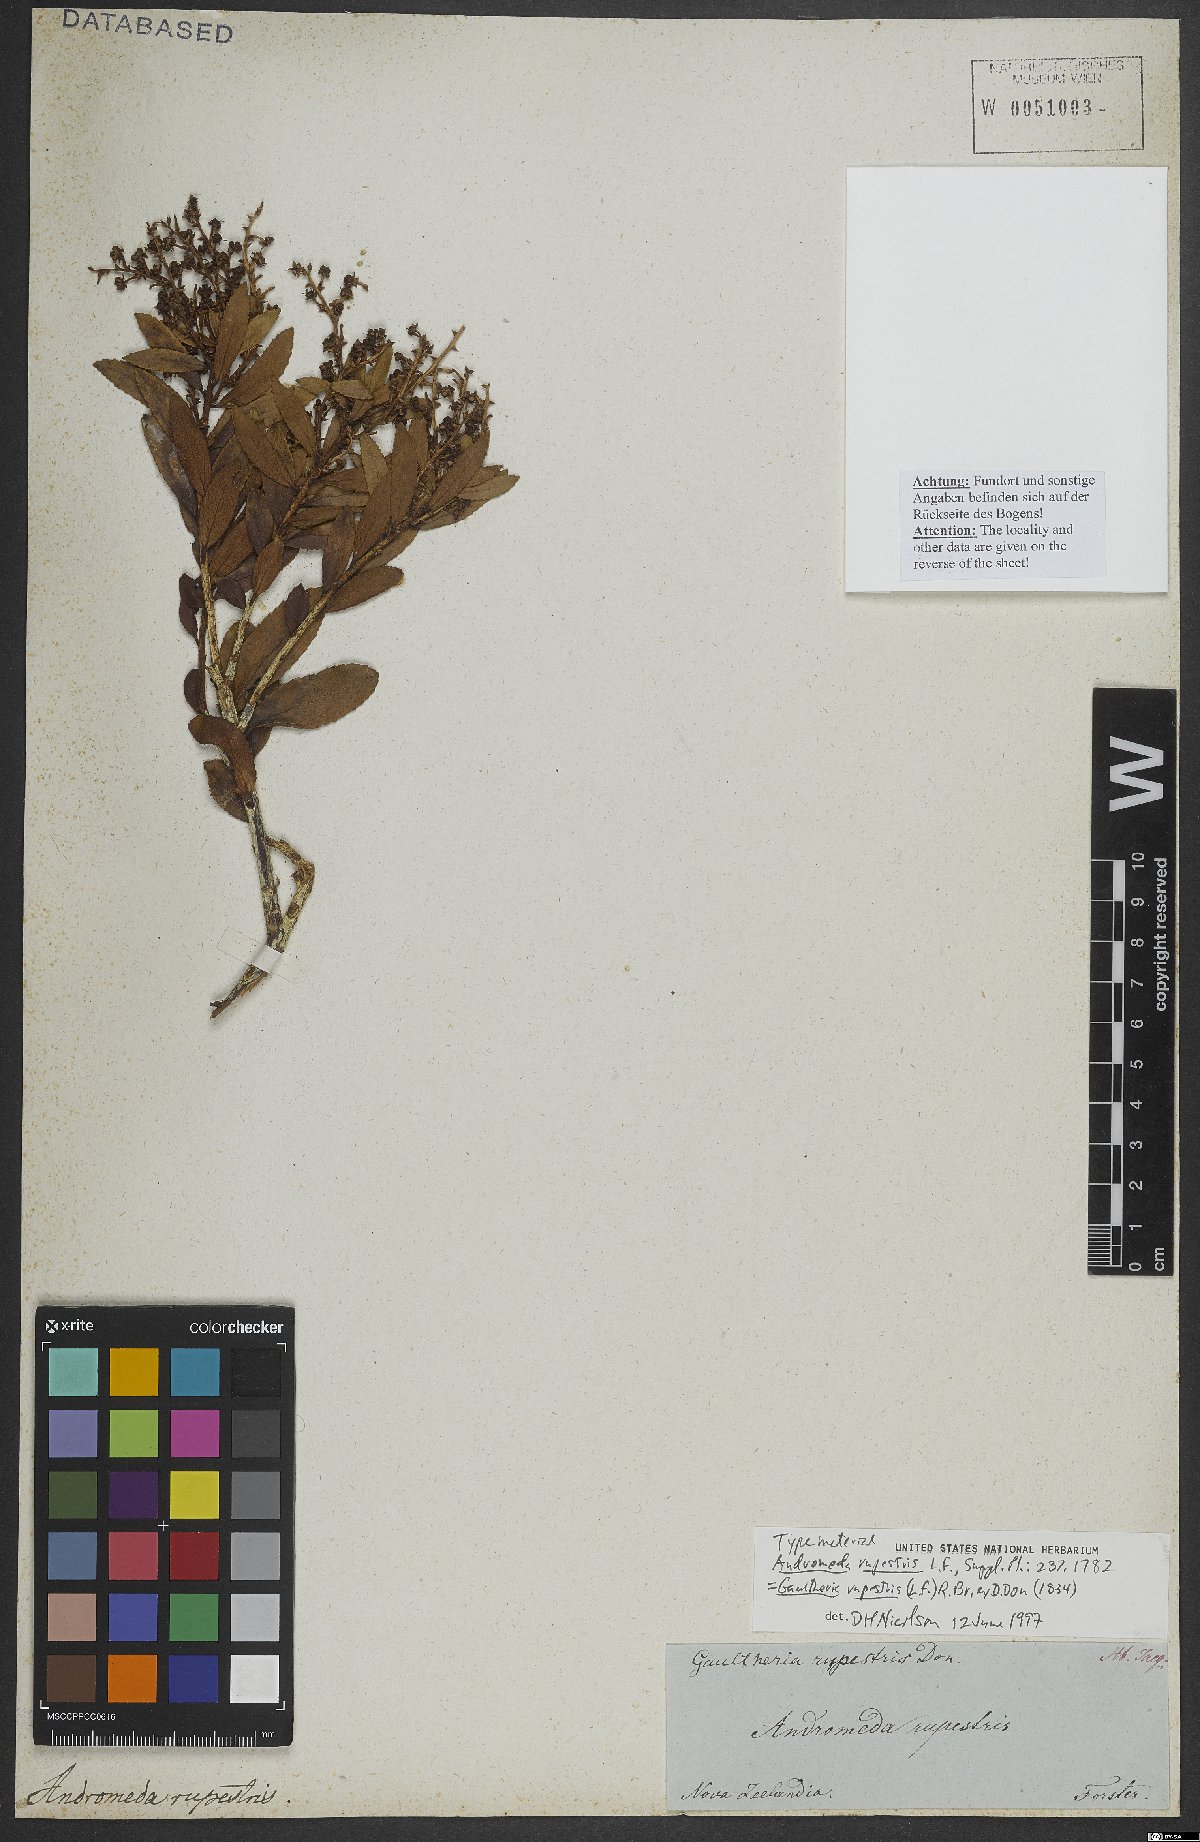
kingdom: Plantae
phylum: Tracheophyta
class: Magnoliopsida
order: Ericales
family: Ericaceae
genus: Gaultheria
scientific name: Gaultheria rupestris
